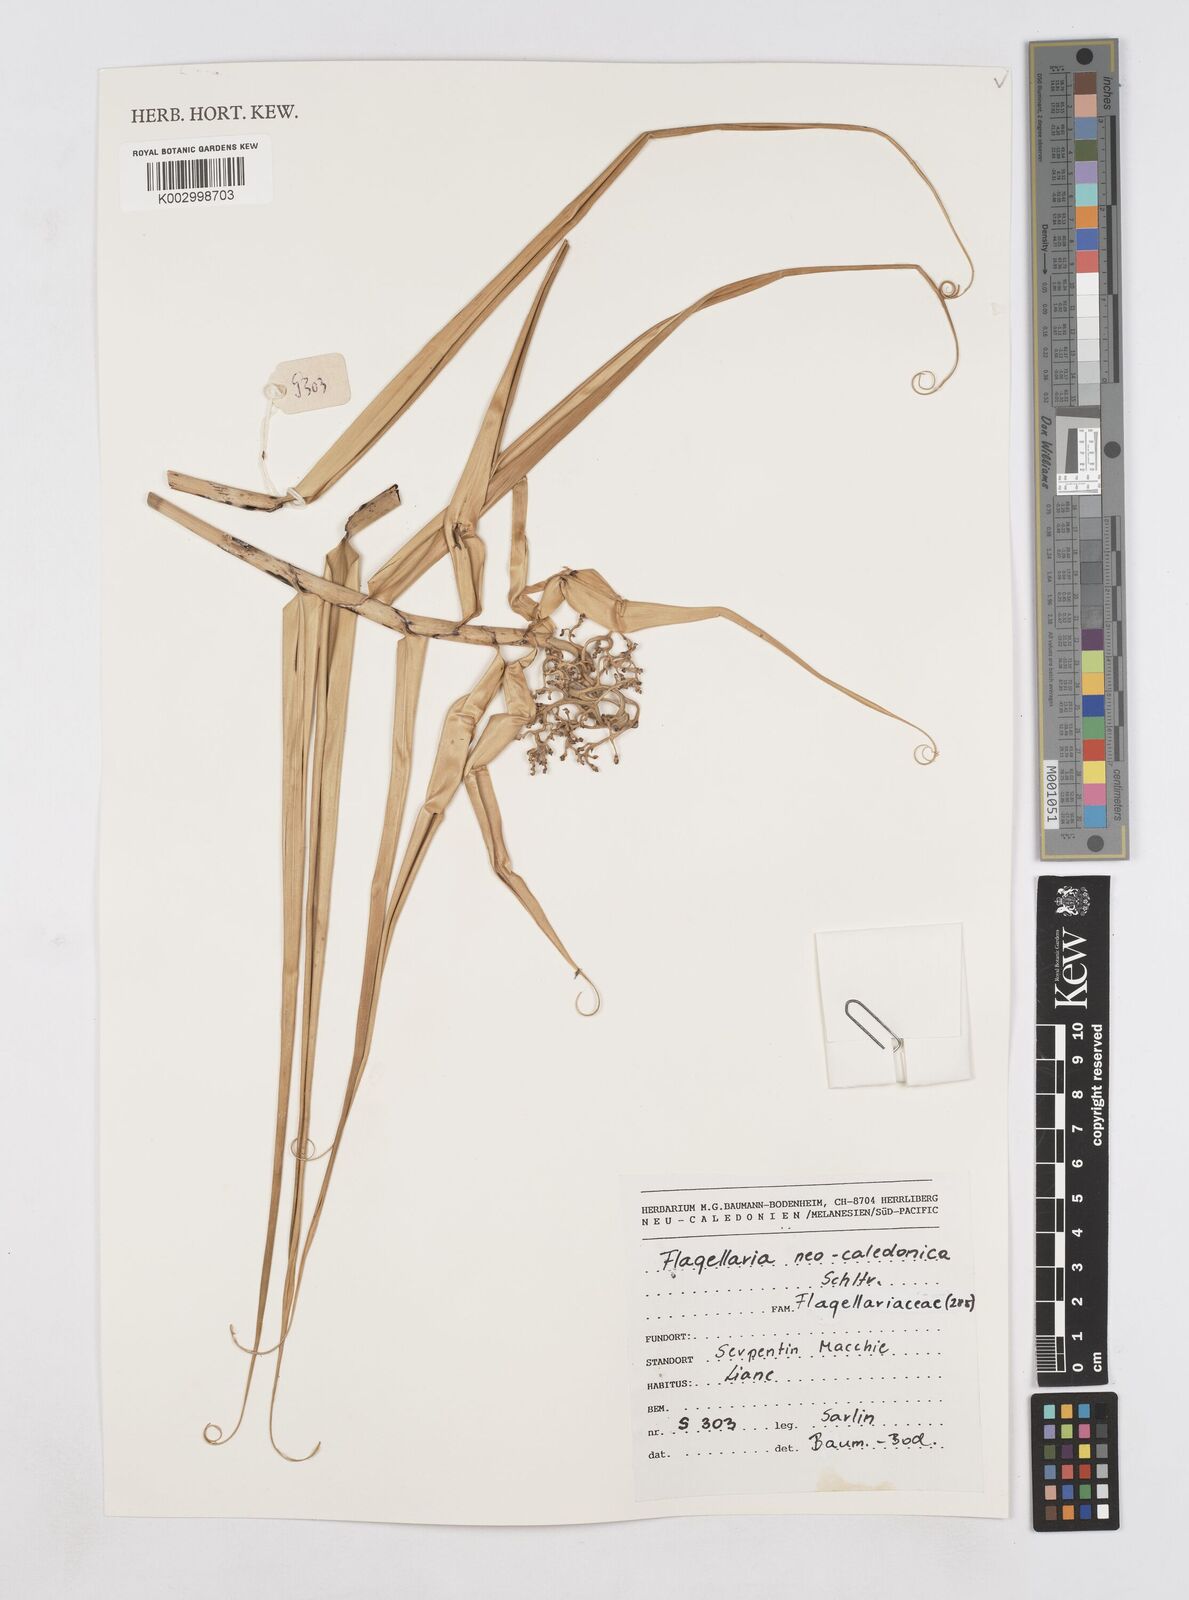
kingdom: Plantae
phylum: Tracheophyta
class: Liliopsida
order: Poales
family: Flagellariaceae
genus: Flagellaria
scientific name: Flagellaria neocaledonica
